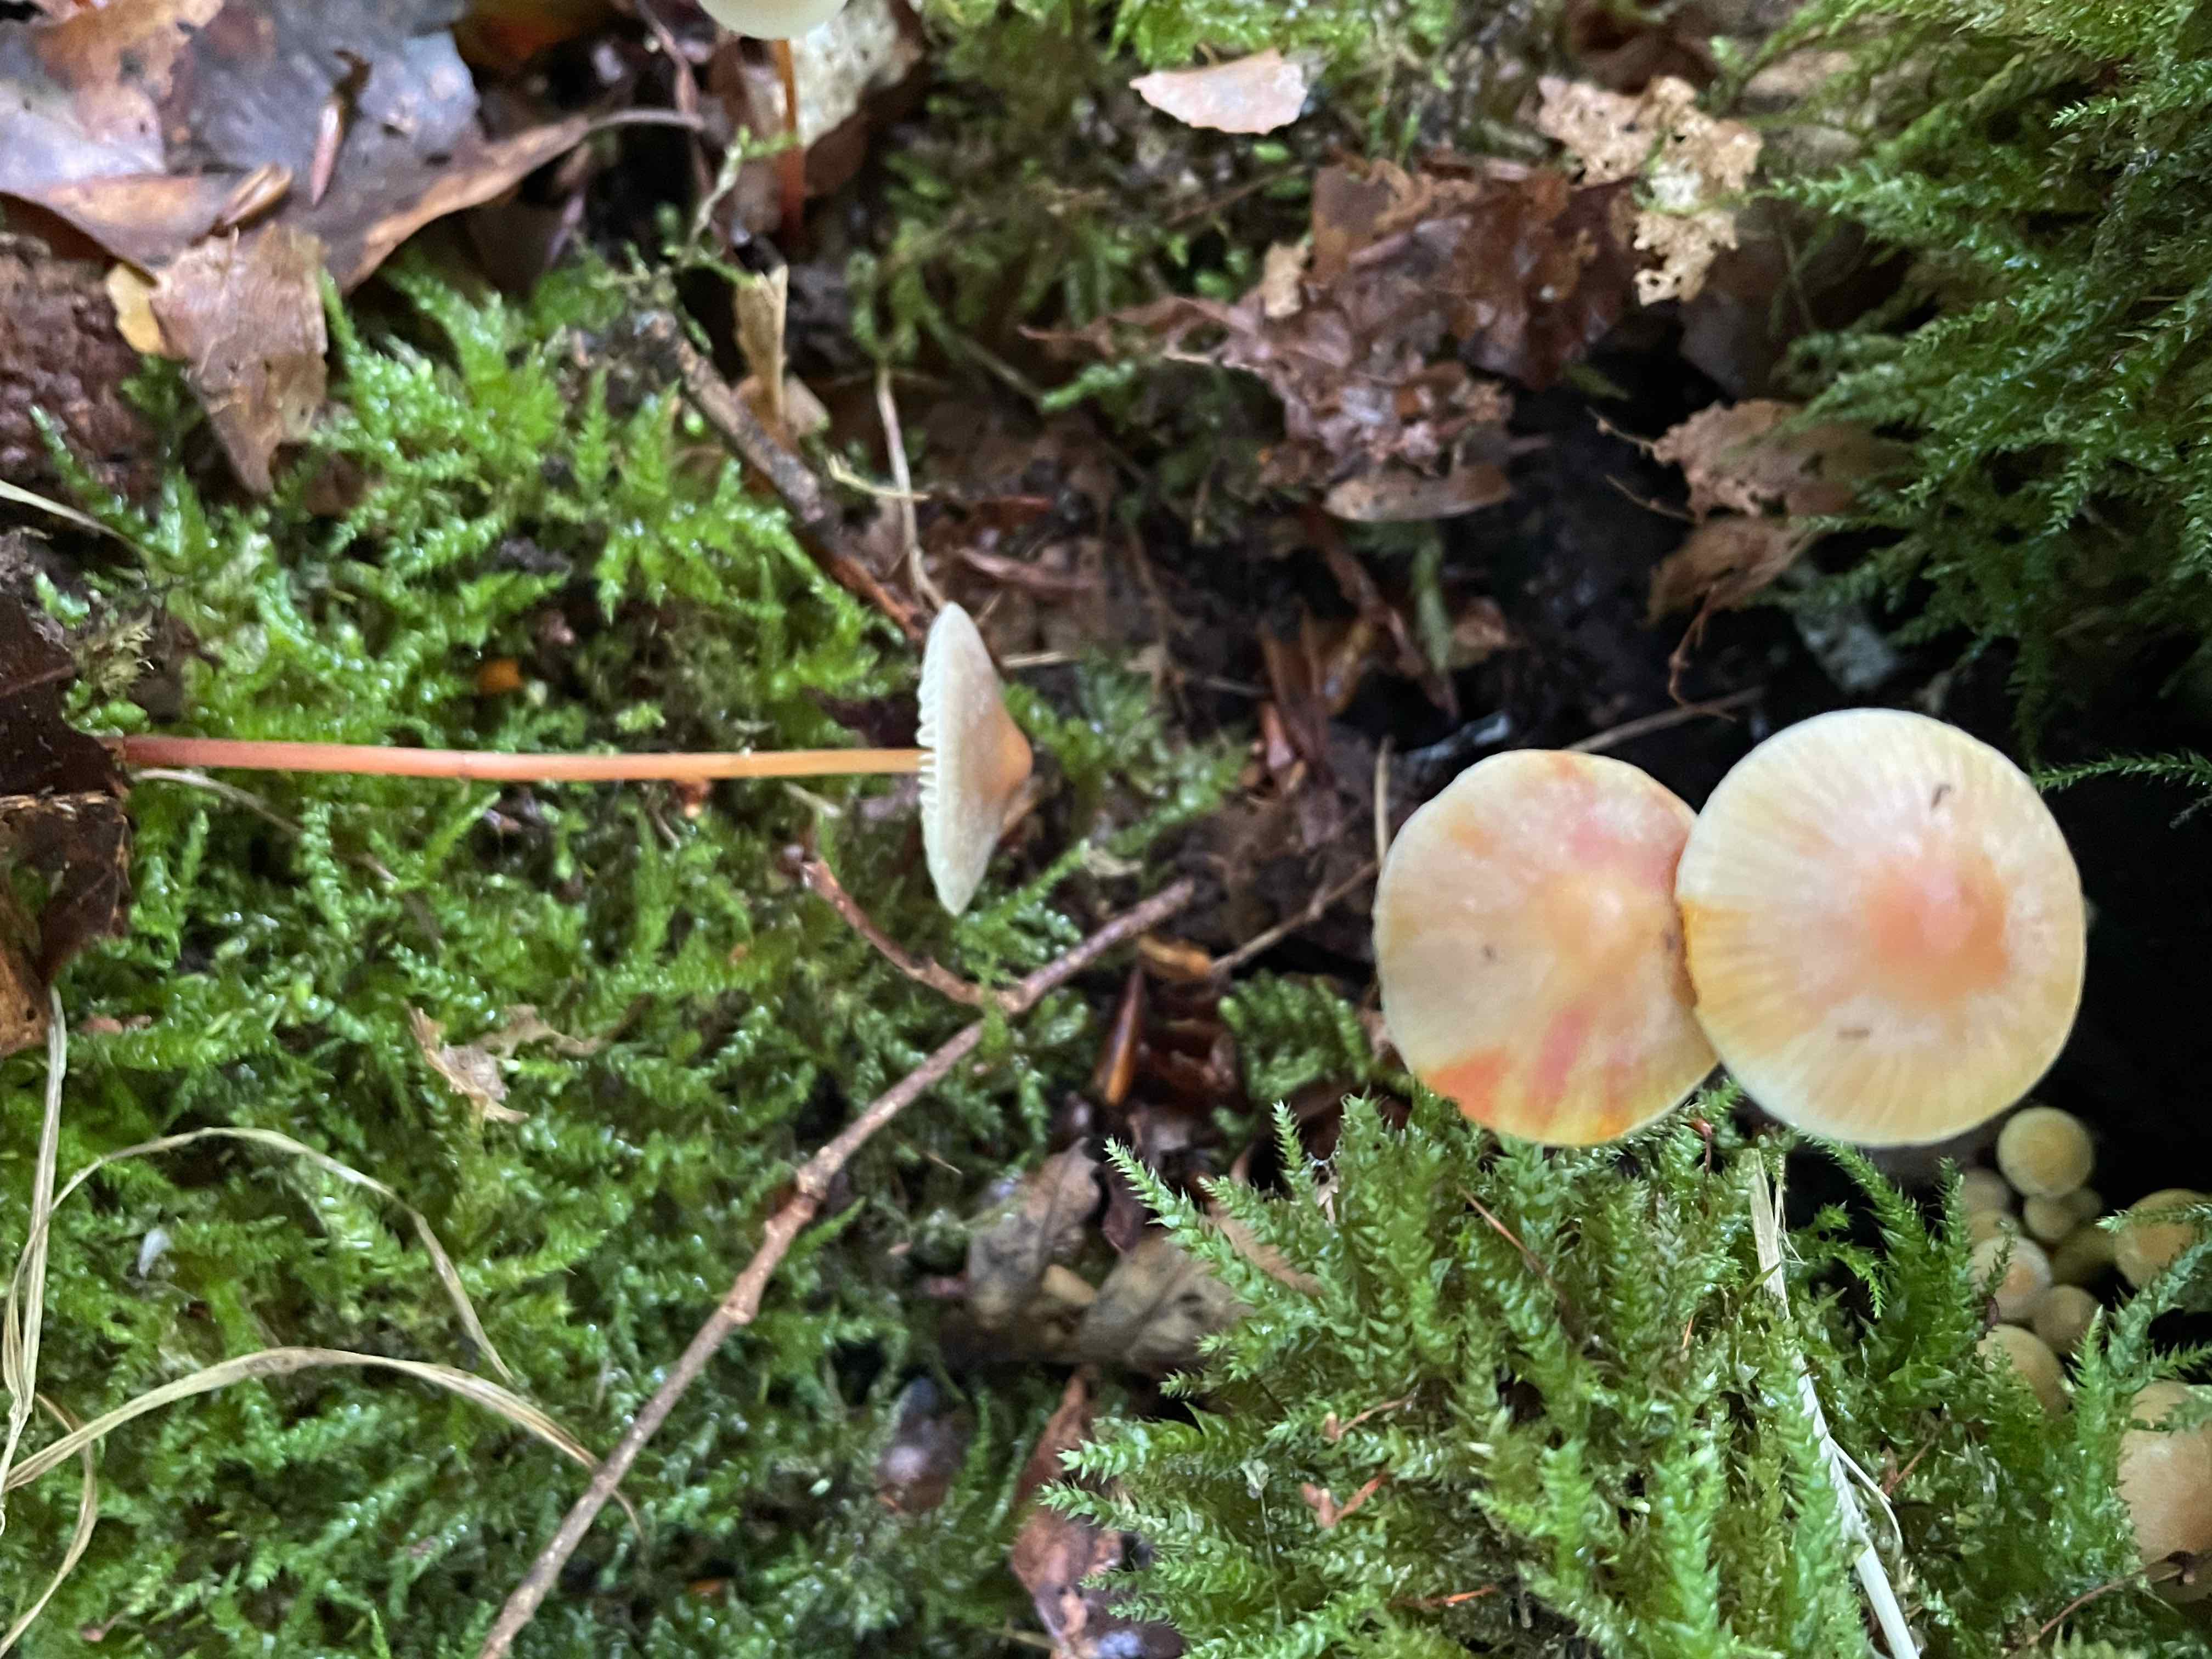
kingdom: Fungi
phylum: Basidiomycota
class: Agaricomycetes
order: Agaricales
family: Mycenaceae
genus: Mycena
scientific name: Mycena crocata
